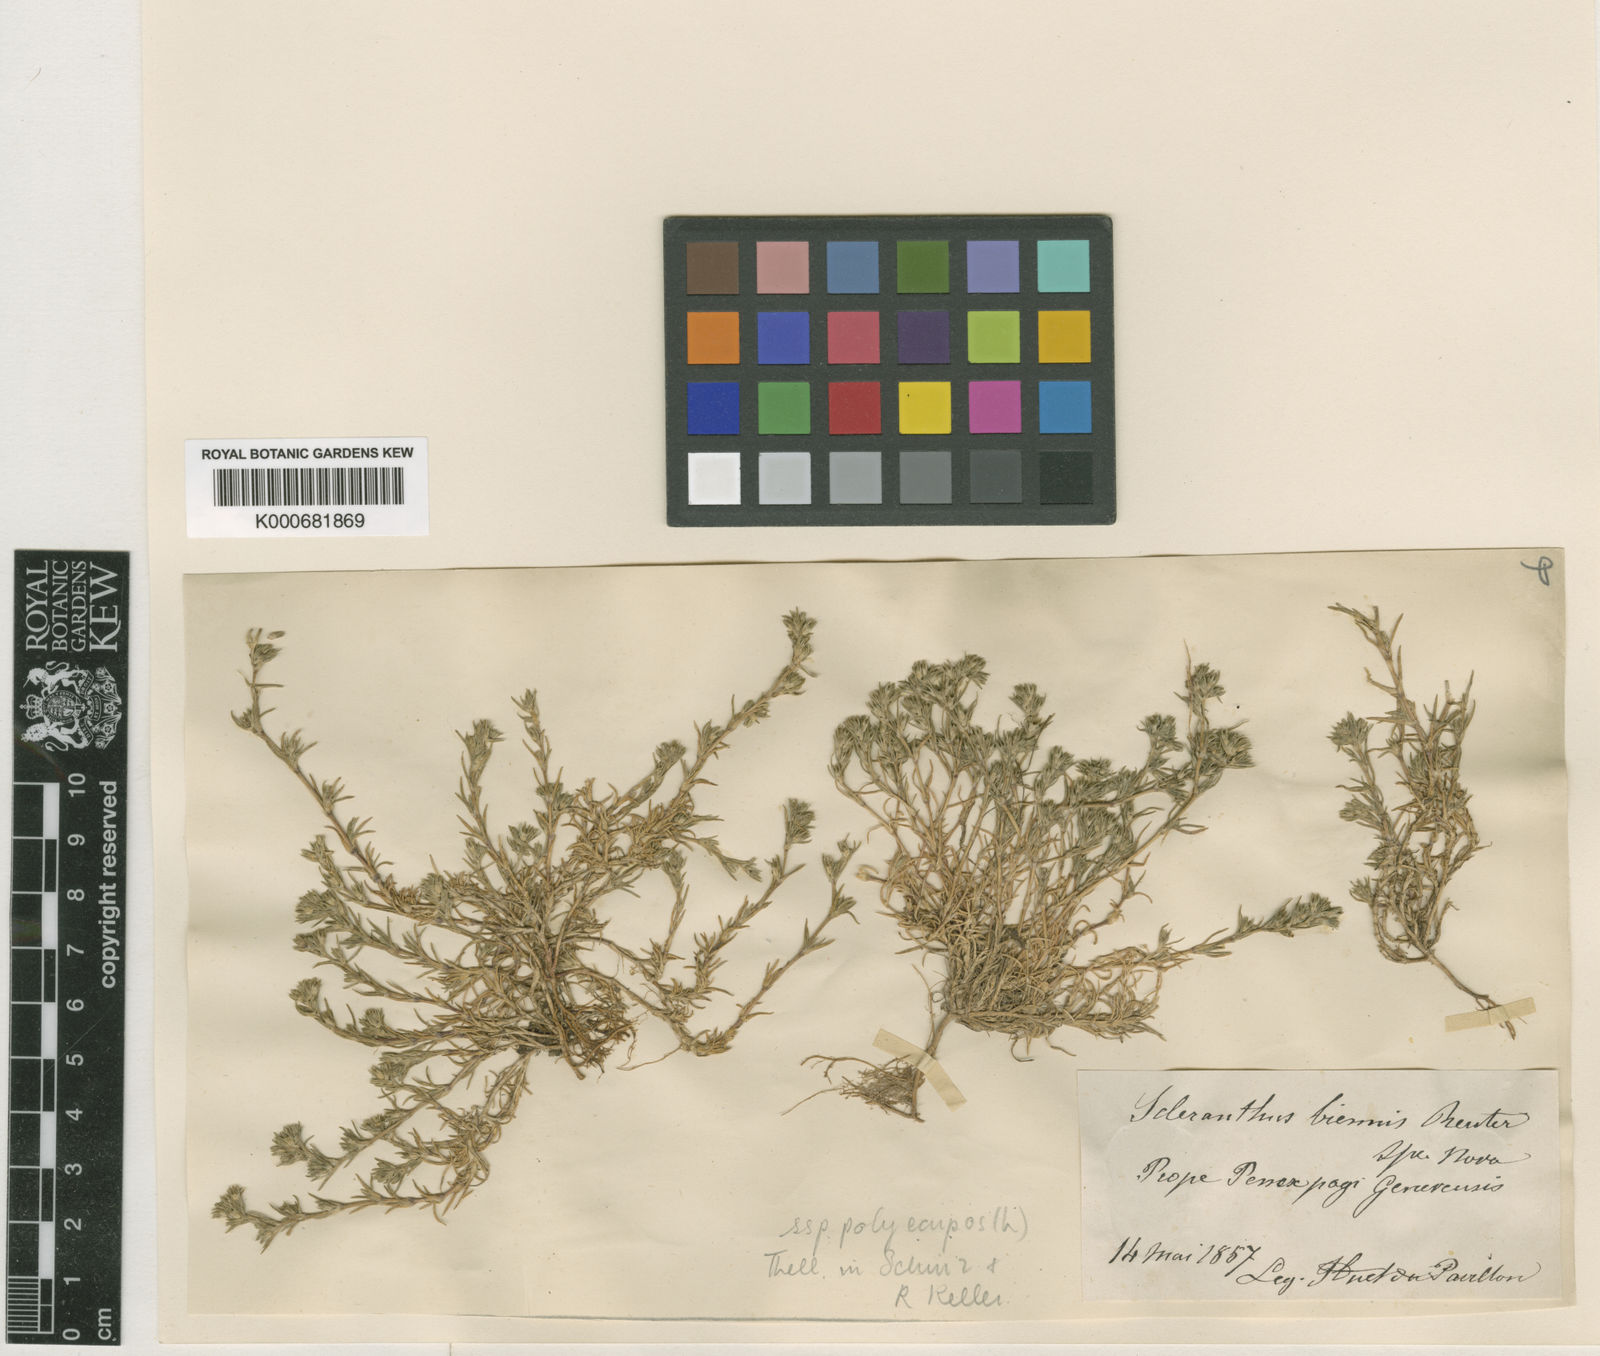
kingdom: Plantae
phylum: Tracheophyta
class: Magnoliopsida
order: Caryophyllales
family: Caryophyllaceae
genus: Scleranthus
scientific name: Scleranthus annuus
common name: Annual knawel
